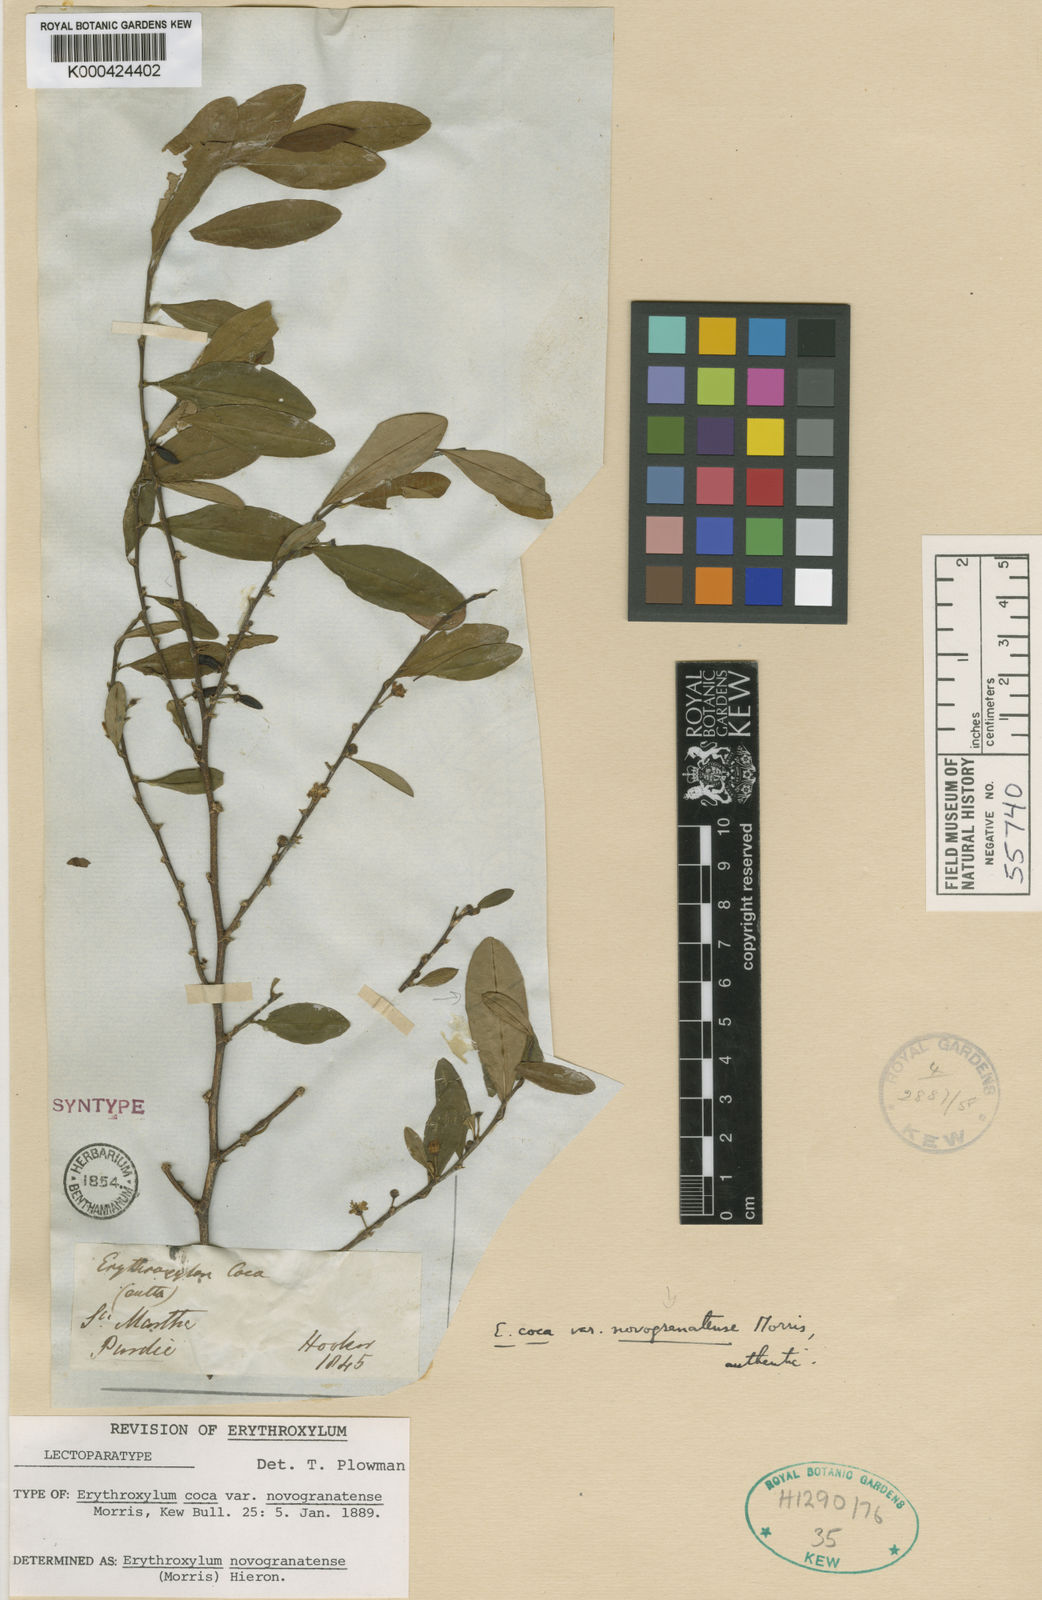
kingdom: Plantae
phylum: Tracheophyta
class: Magnoliopsida
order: Malpighiales
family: Erythroxylaceae
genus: Erythroxylum
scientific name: Erythroxylum novogranatense
